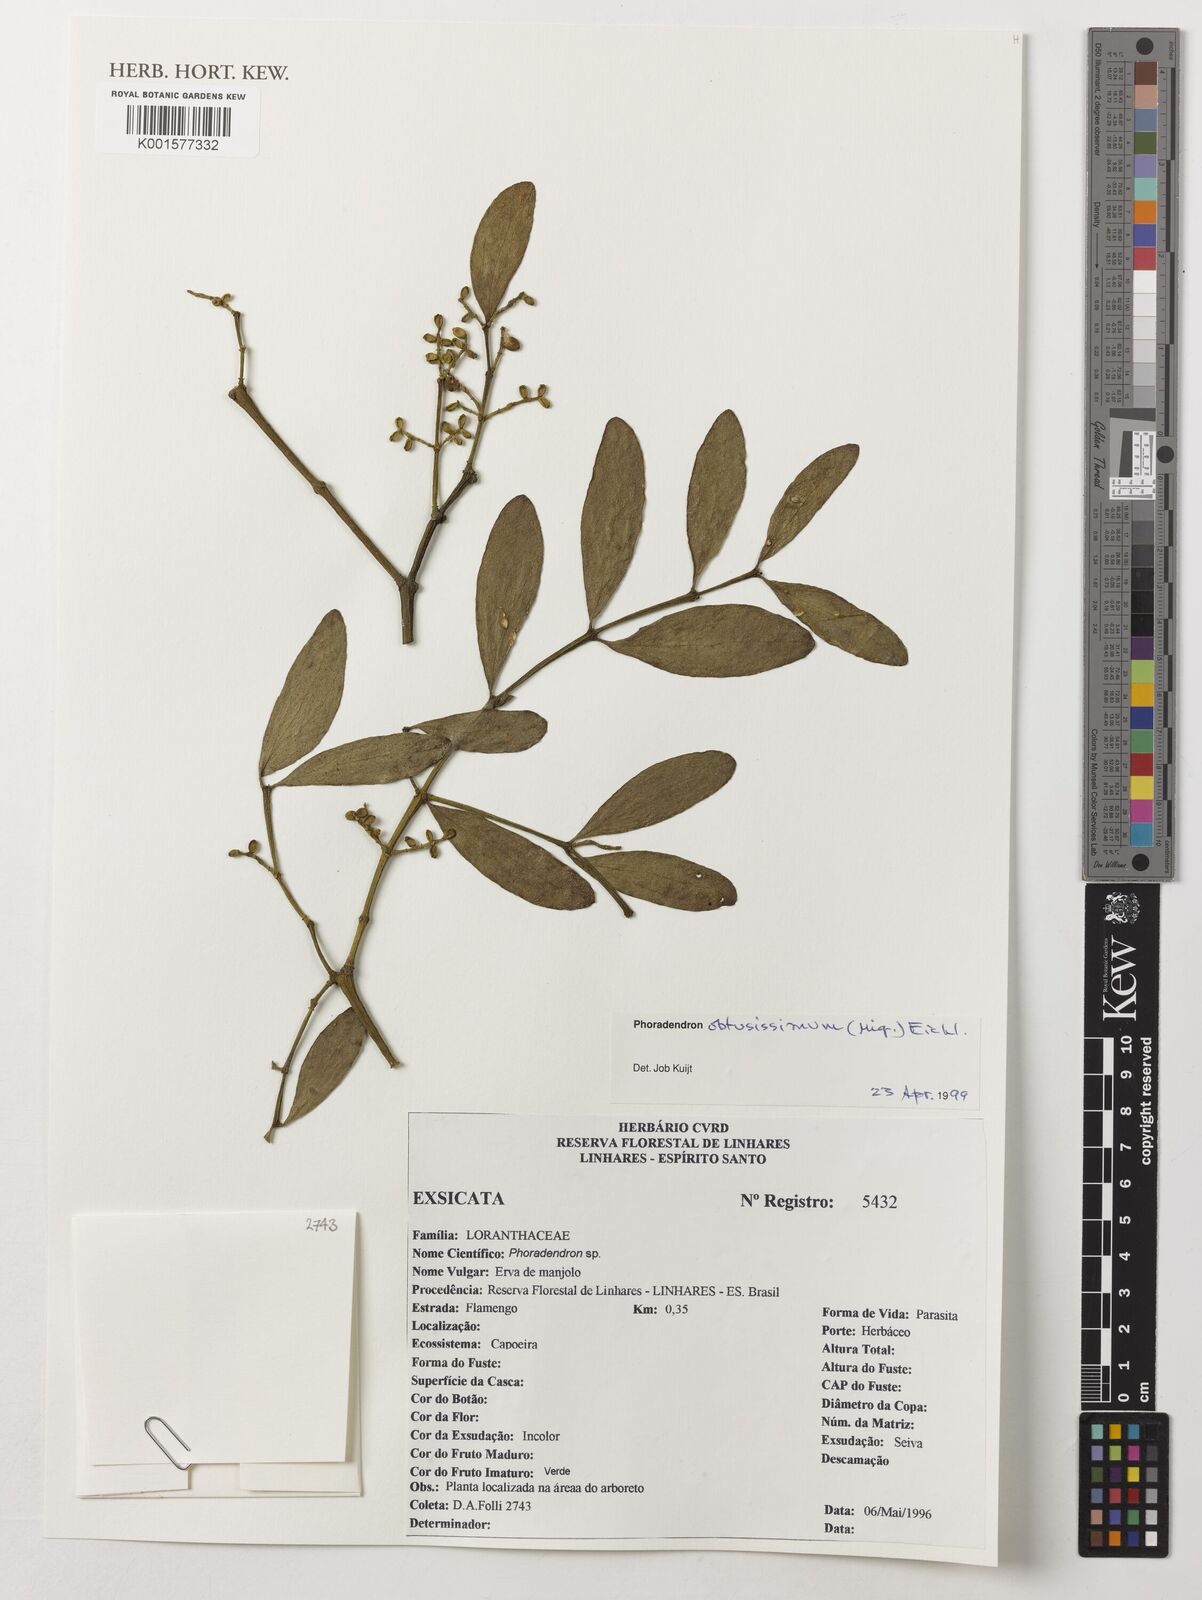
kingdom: Plantae
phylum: Tracheophyta
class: Magnoliopsida
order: Santalales
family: Viscaceae
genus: Phoradendron
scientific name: Phoradendron obtusissimum
